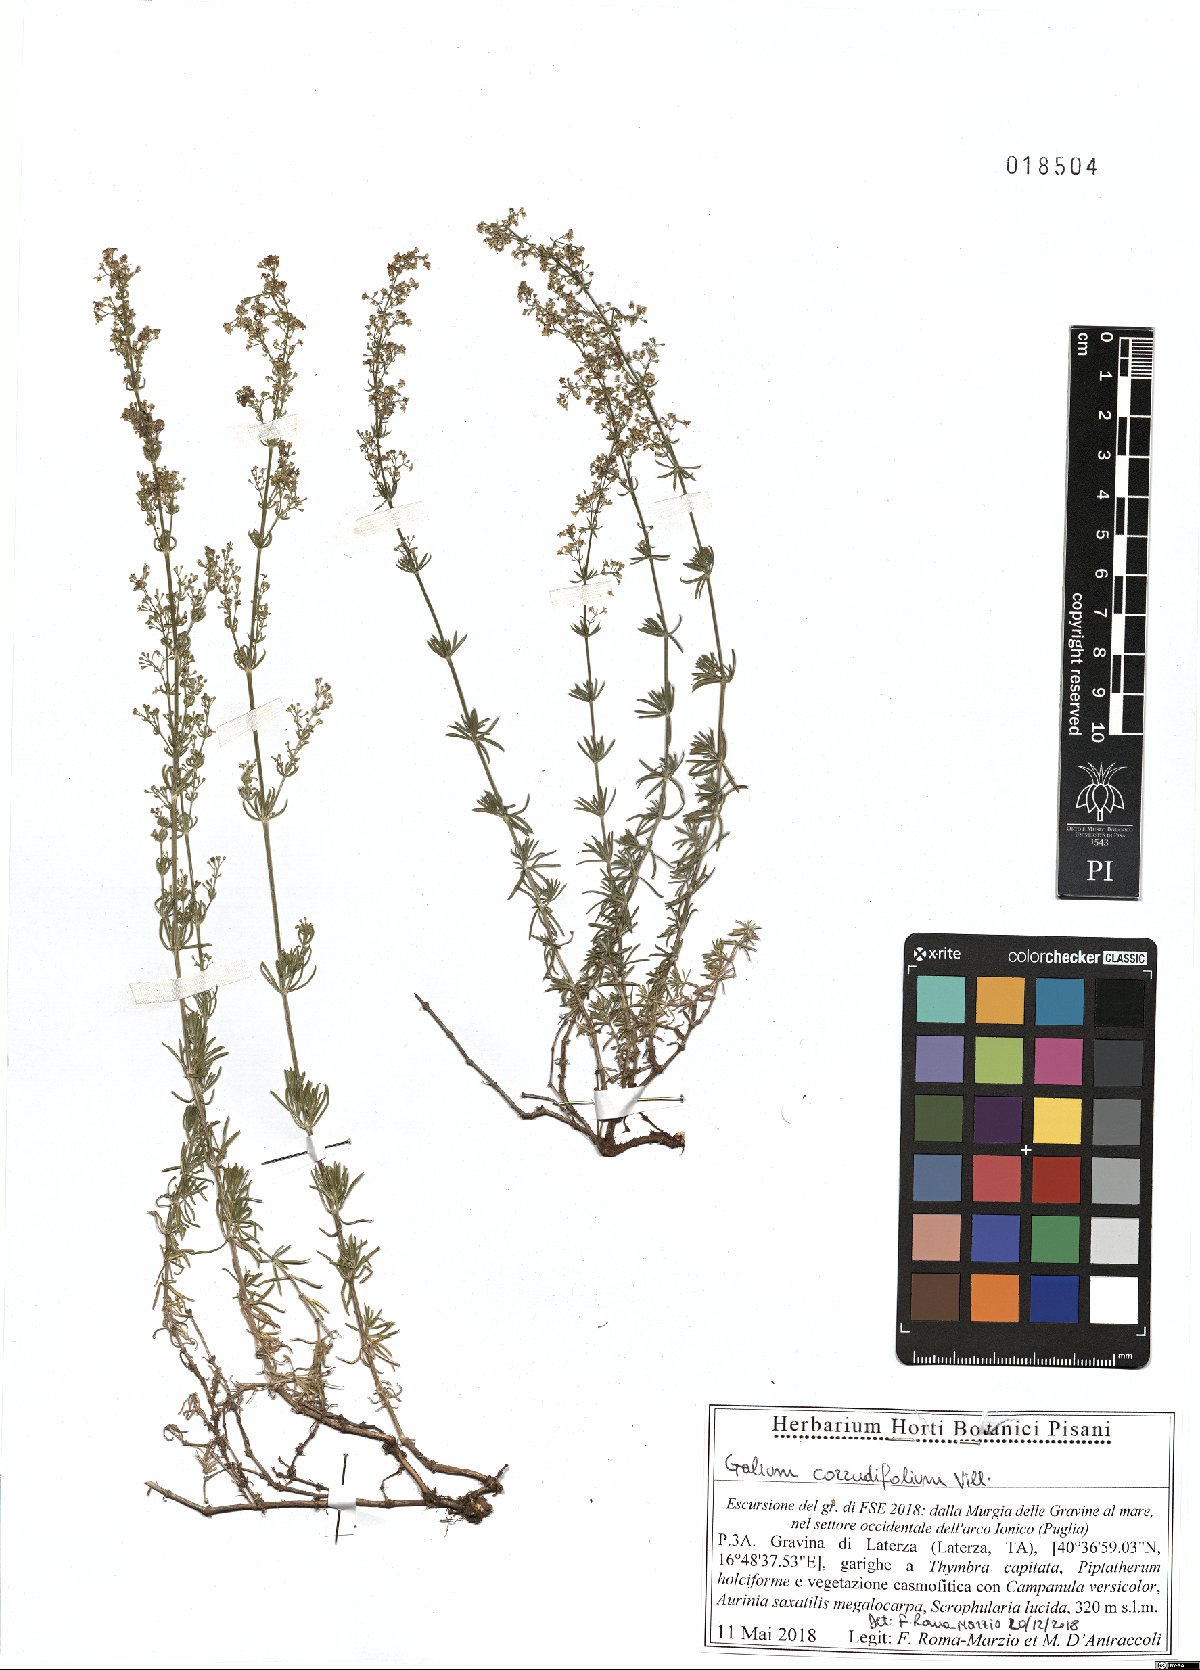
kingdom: Plantae
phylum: Tracheophyta
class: Magnoliopsida
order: Gentianales
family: Rubiaceae
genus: Galium
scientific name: Galium lucidum
